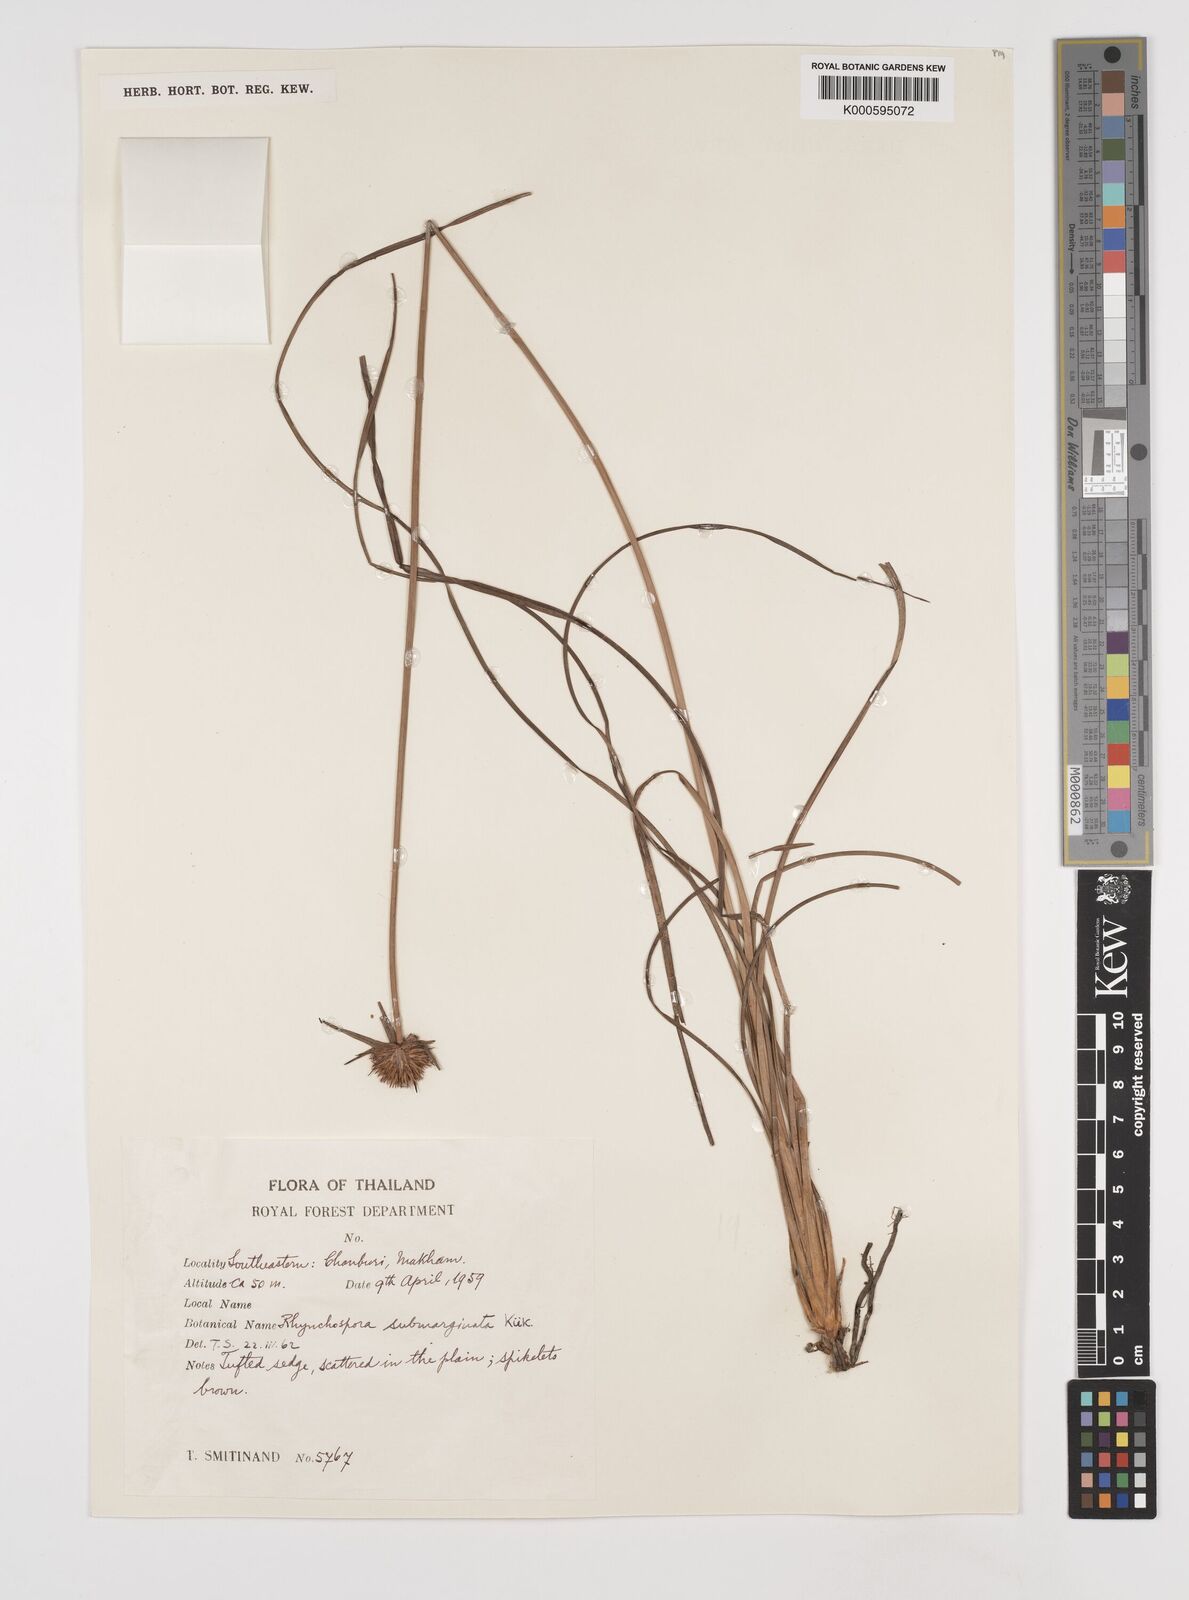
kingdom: Plantae
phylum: Tracheophyta
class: Liliopsida
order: Poales
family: Cyperaceae
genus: Rhynchospora
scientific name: Rhynchospora rubra
